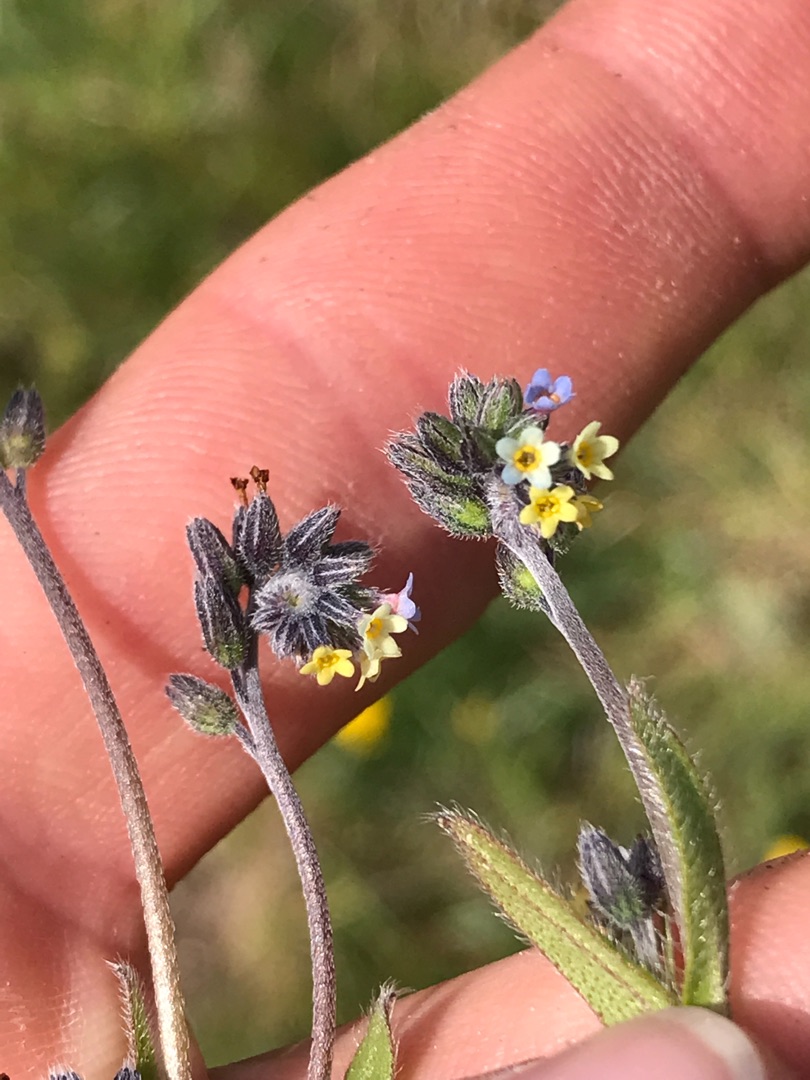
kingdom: Plantae
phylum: Tracheophyta
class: Magnoliopsida
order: Boraginales
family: Boraginaceae
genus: Myosotis
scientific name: Myosotis discolor
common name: Forskelligfarvet forglemmigej
